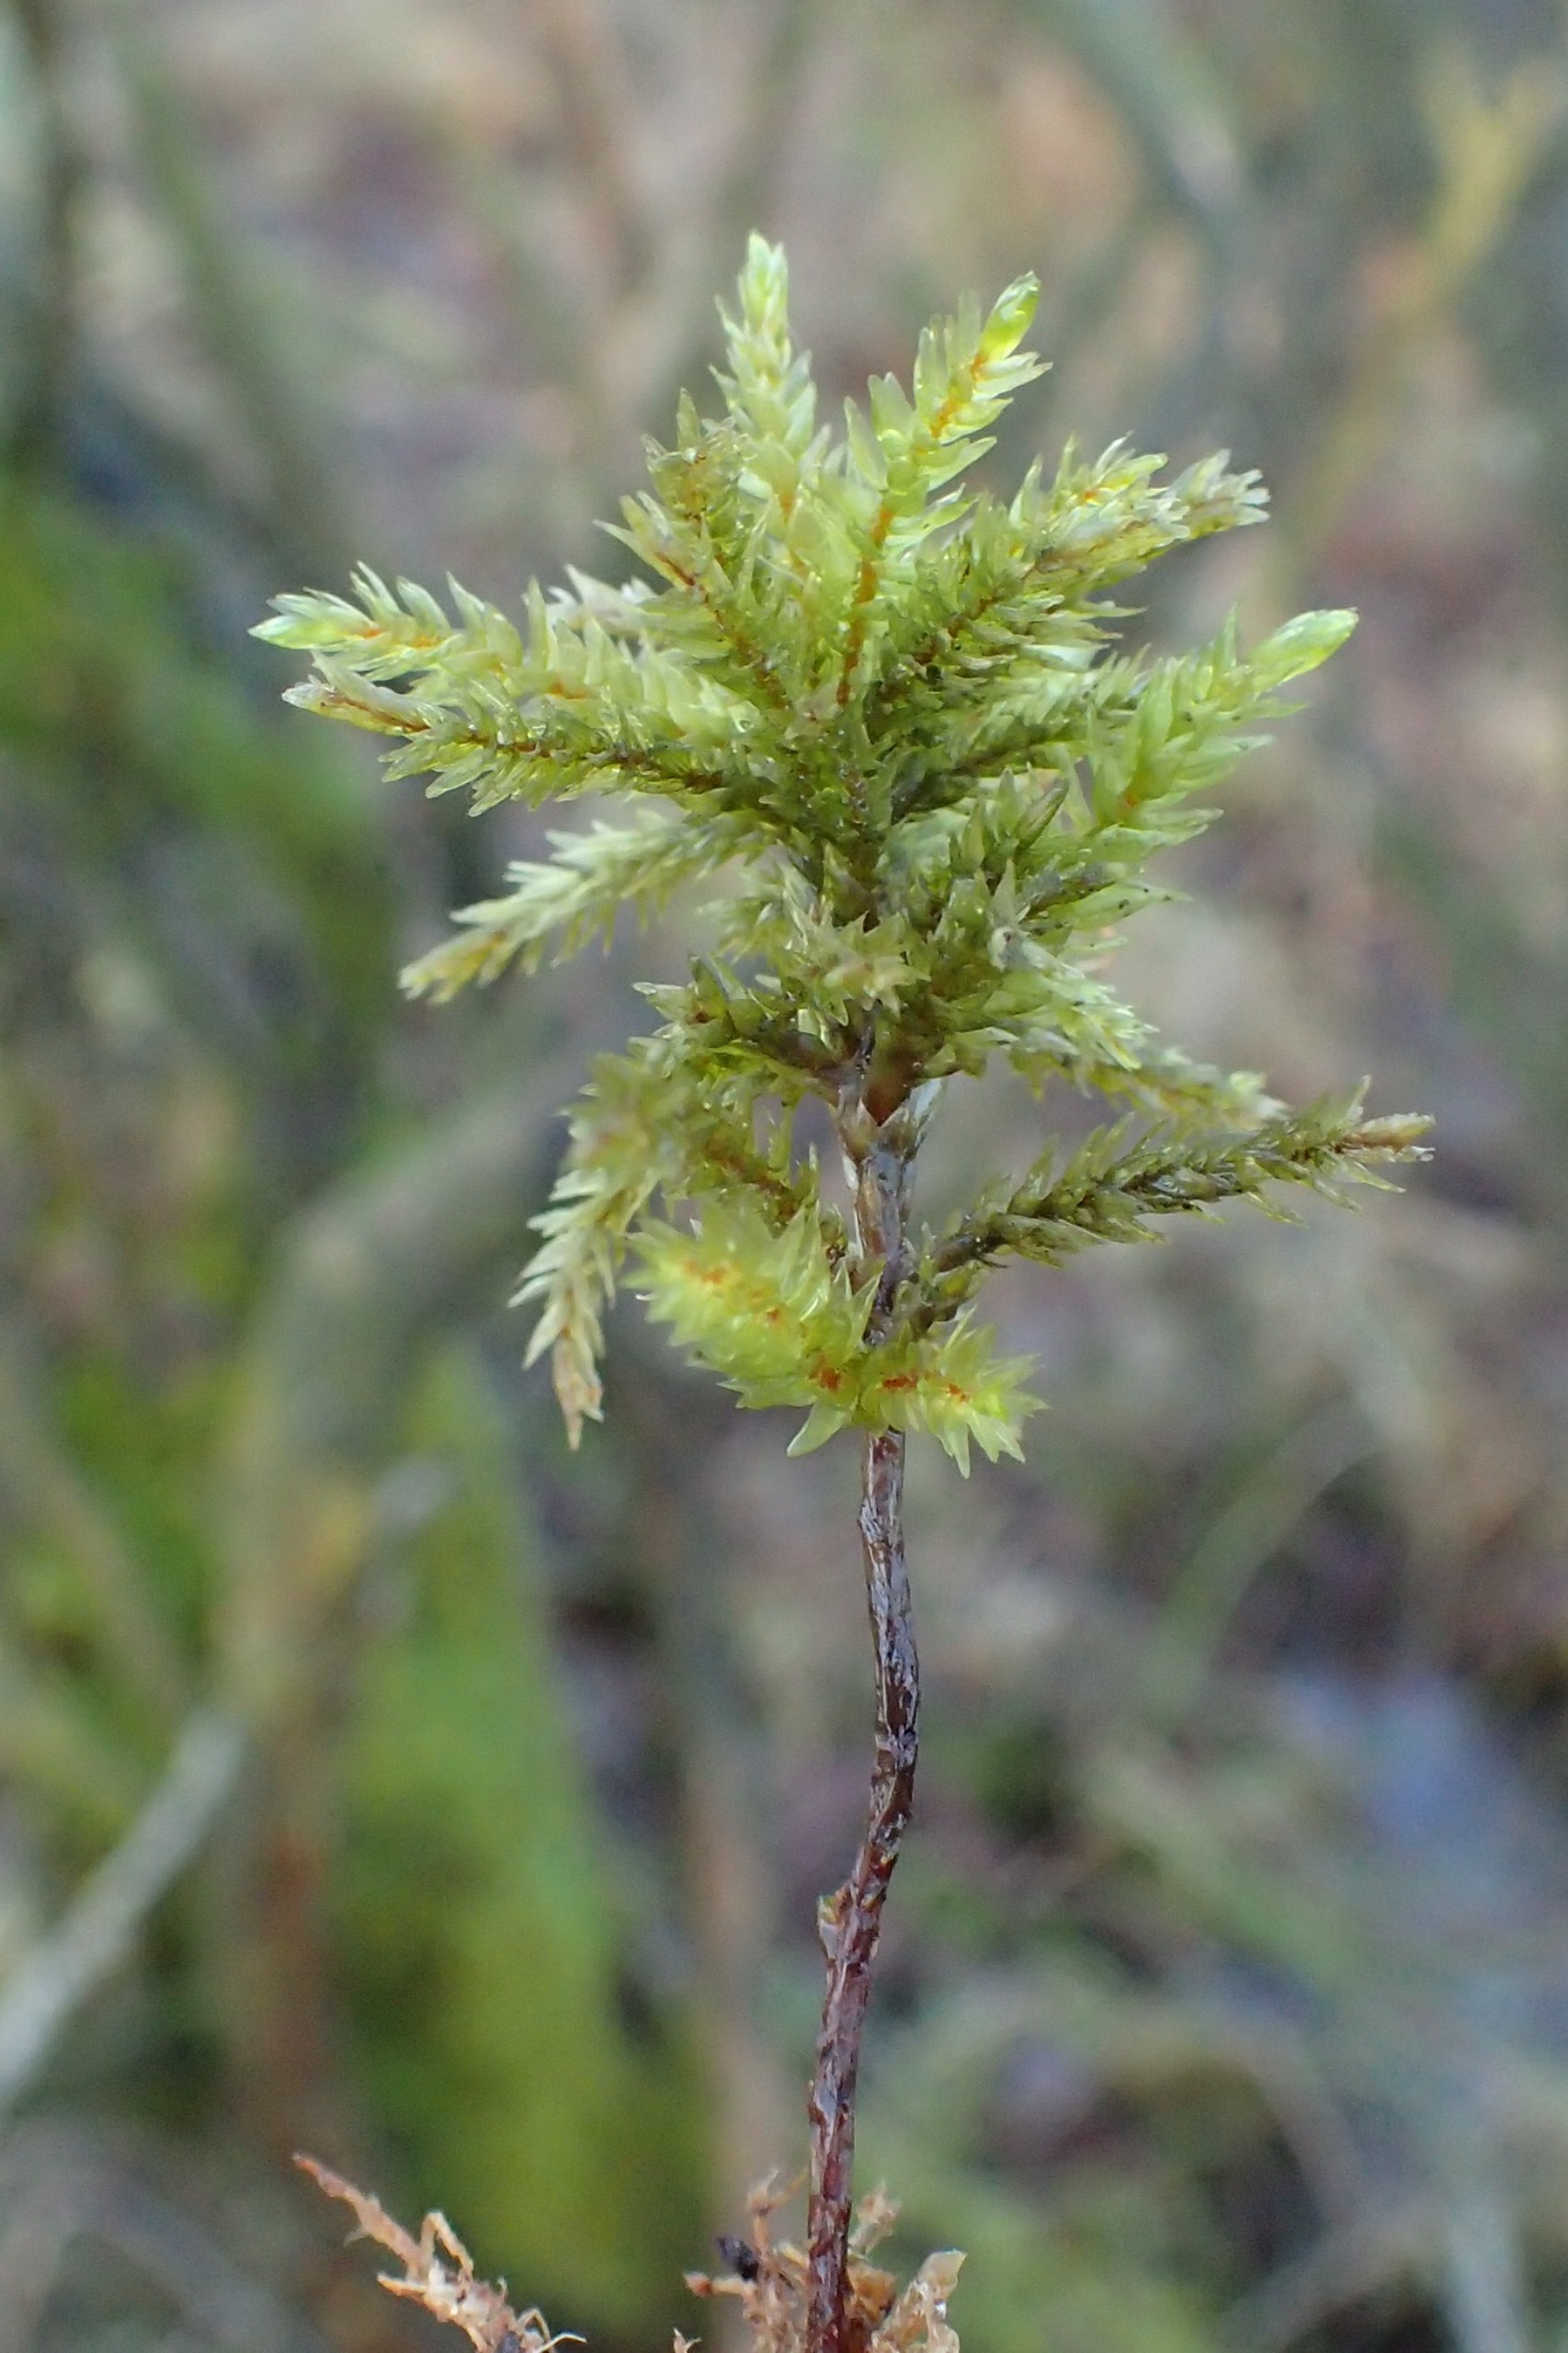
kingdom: Plantae
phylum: Bryophyta
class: Bryopsida
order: Hypnales
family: Climaciaceae
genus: Climacium
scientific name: Climacium dendroides
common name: Stor engkost
